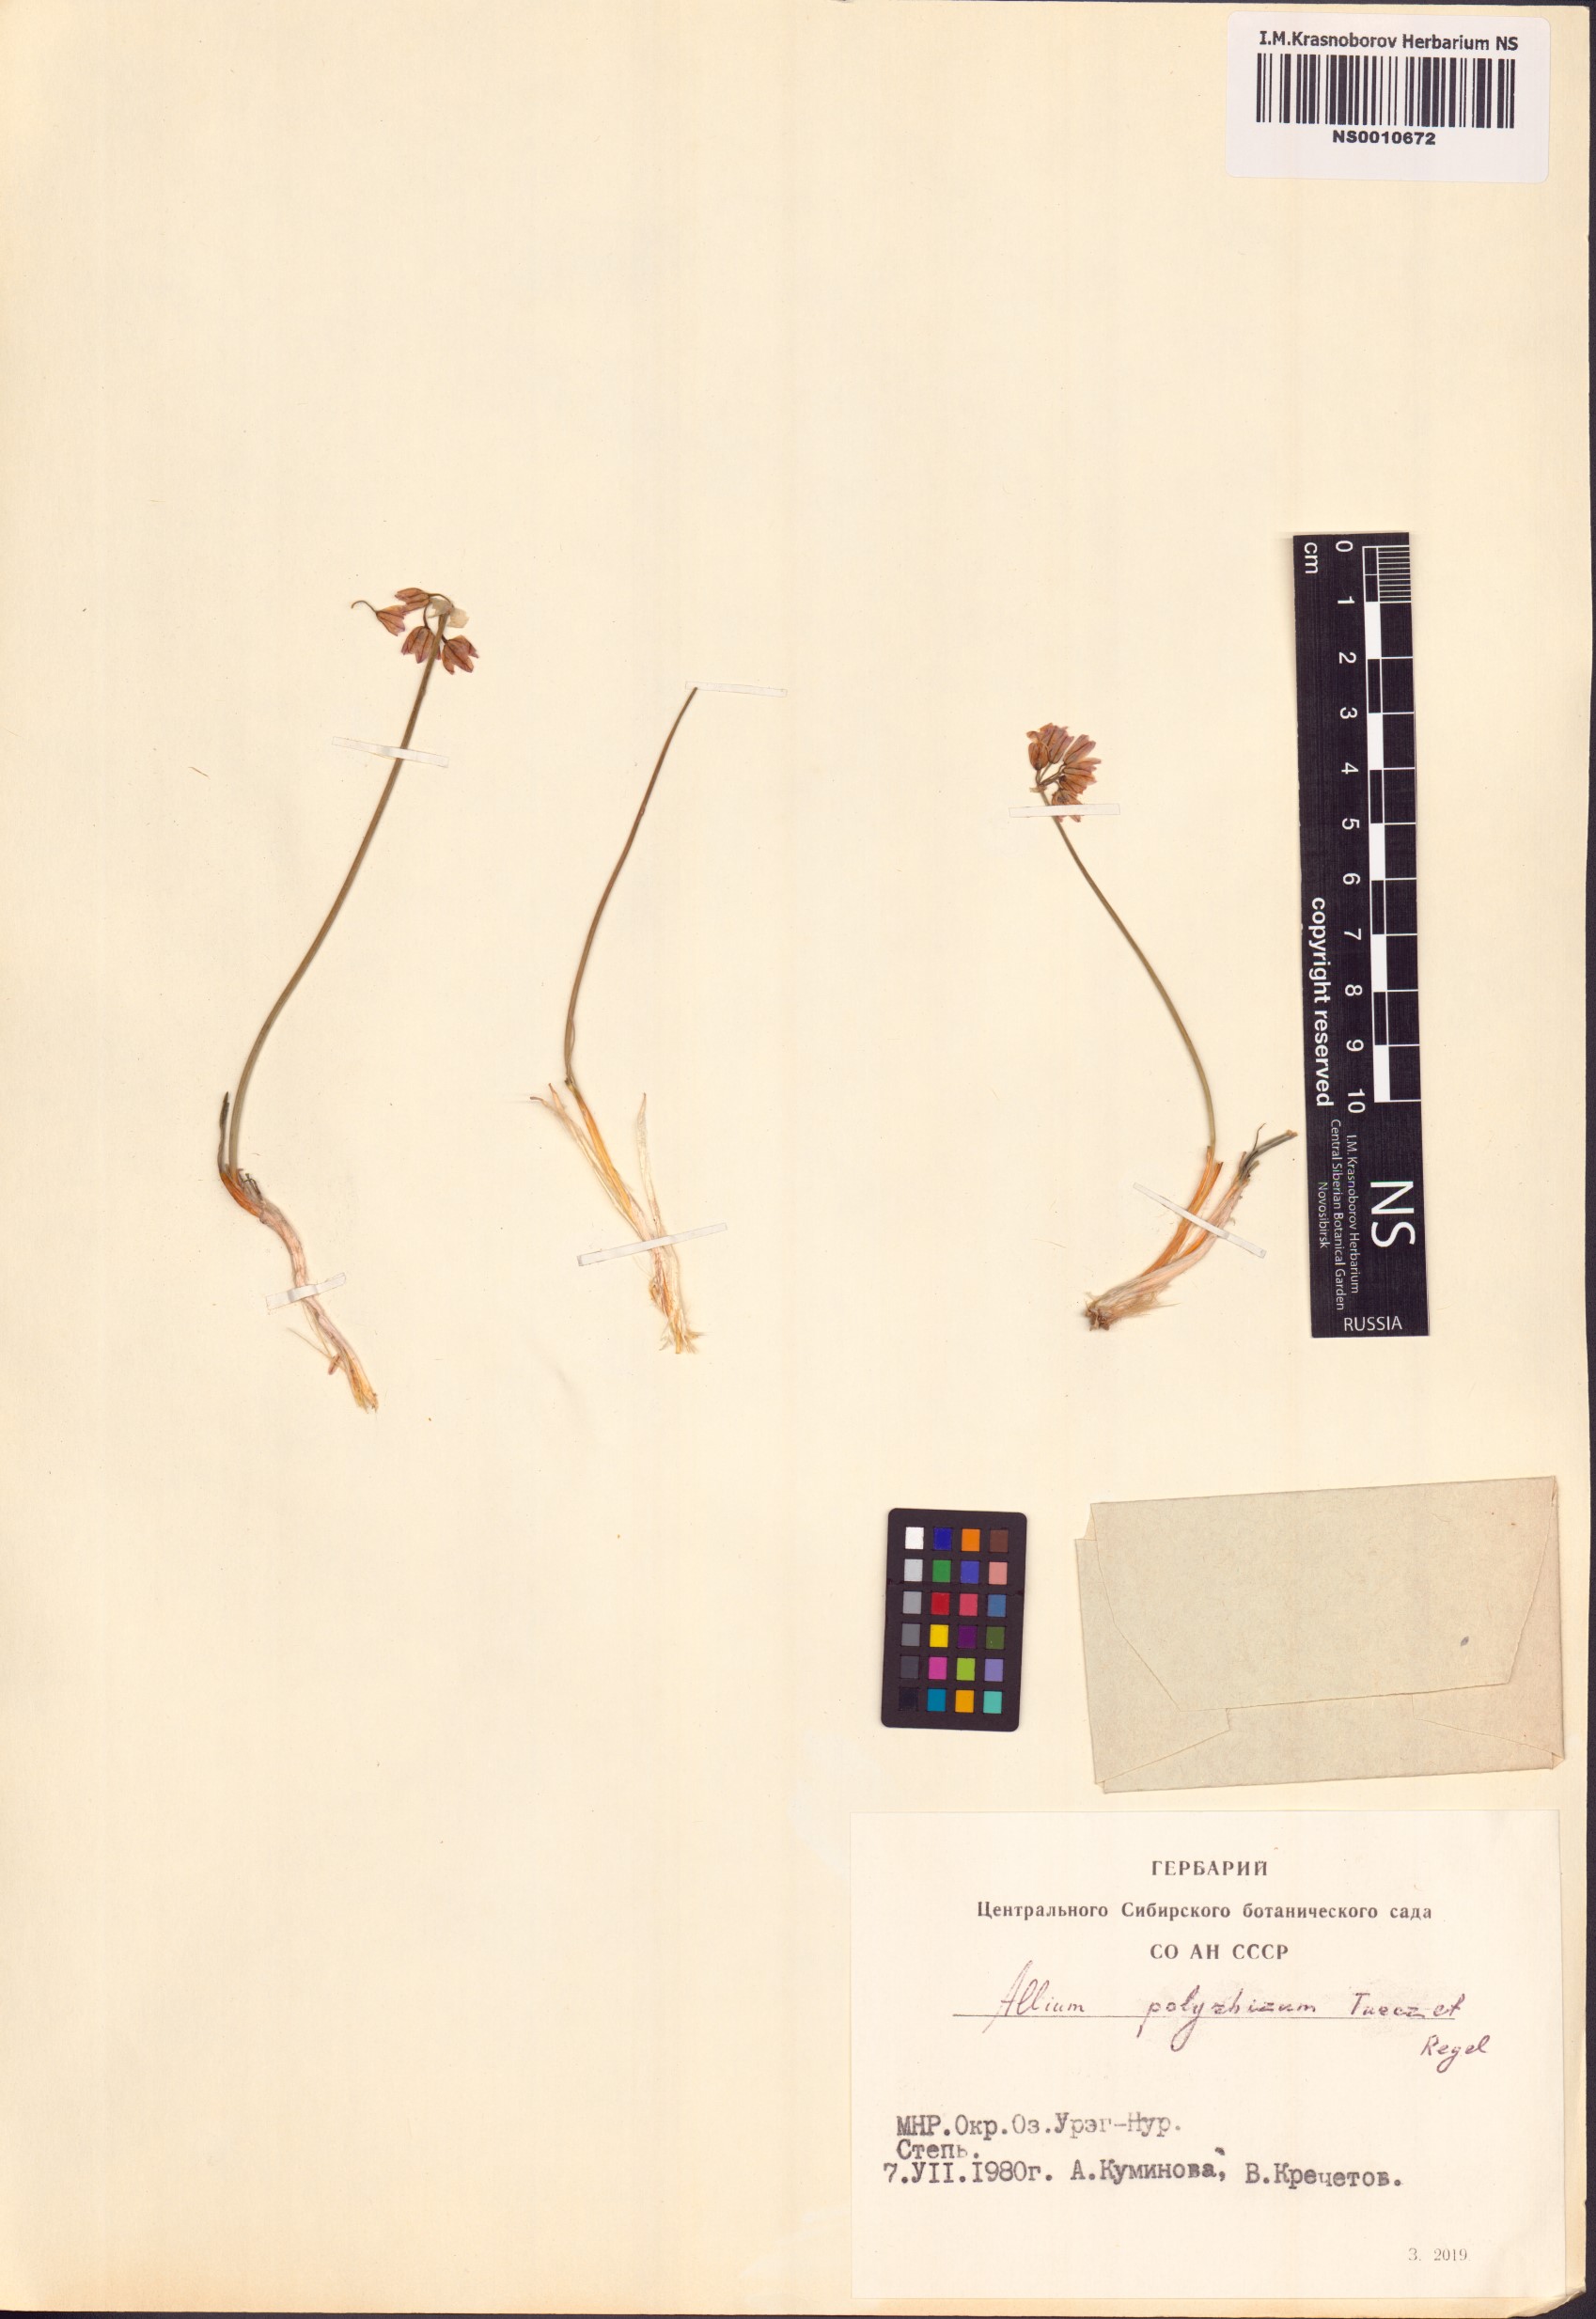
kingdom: Plantae
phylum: Tracheophyta
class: Liliopsida
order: Asparagales
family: Amaryllidaceae
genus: Allium
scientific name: Allium polyrhizum
